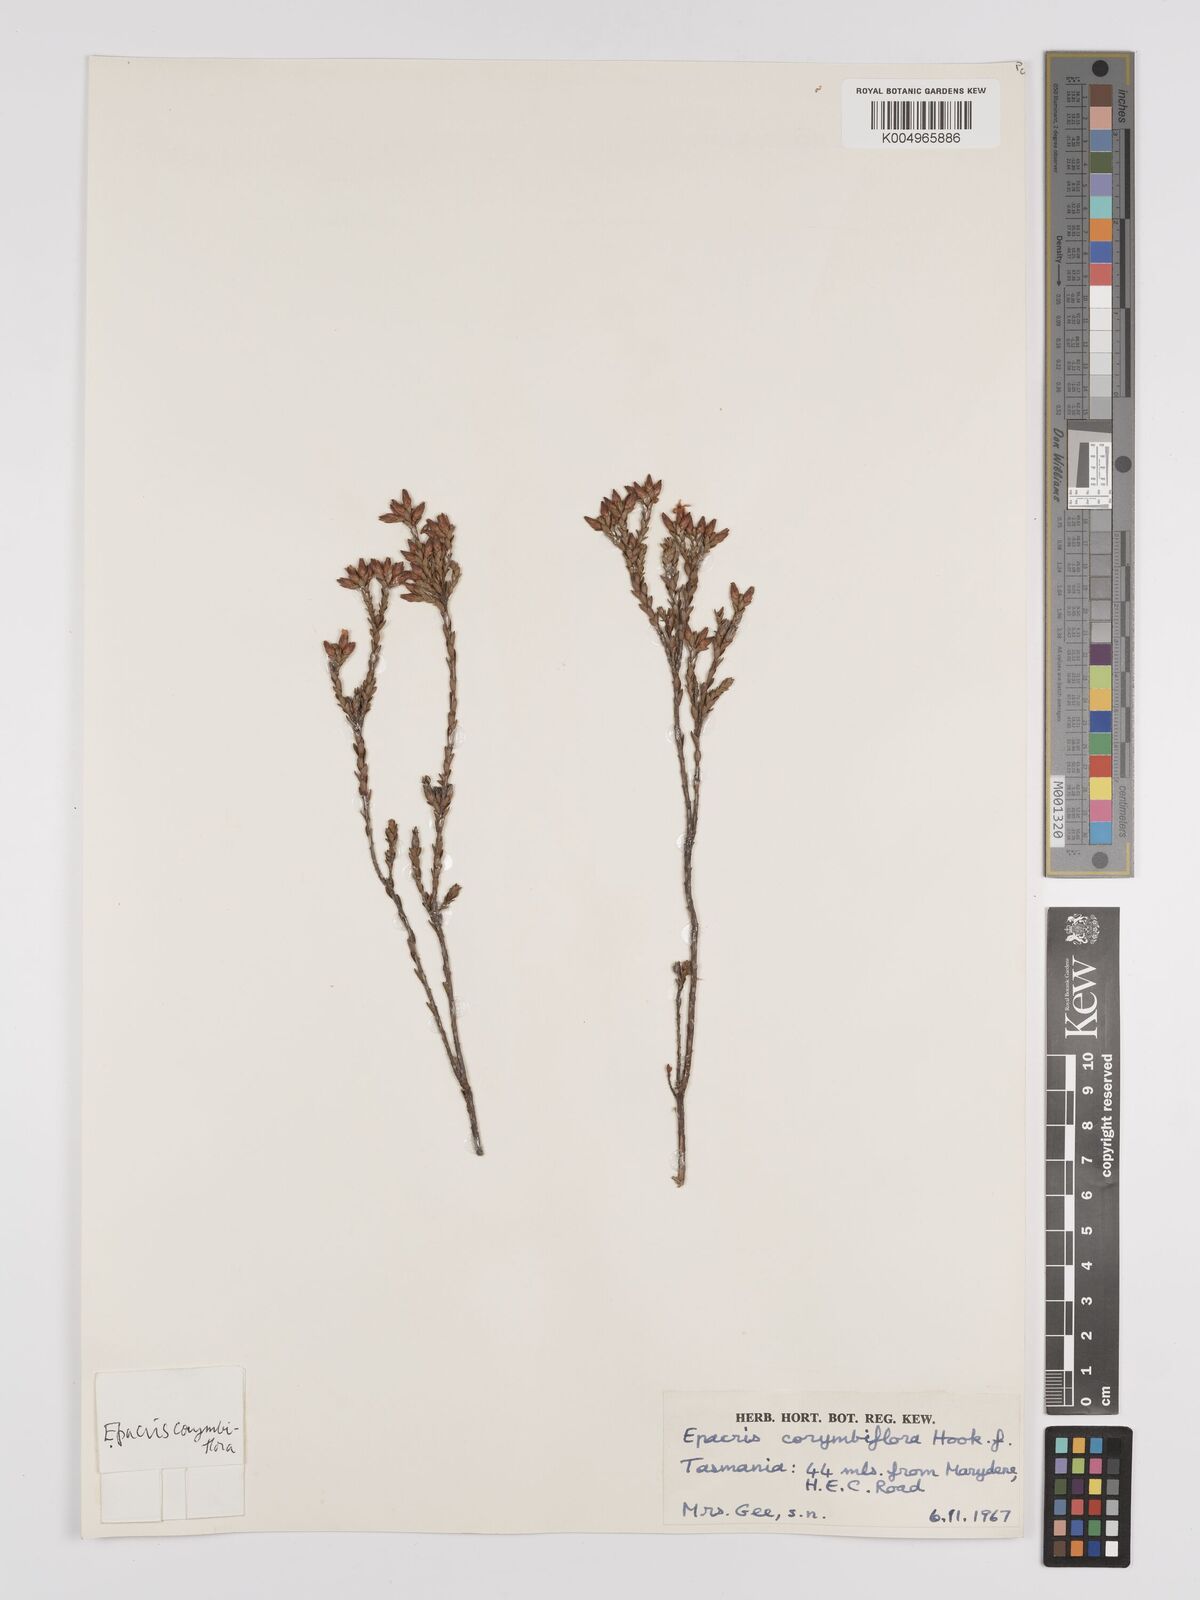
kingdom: Plantae
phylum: Tracheophyta
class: Magnoliopsida
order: Ericales
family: Ericaceae
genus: Epacris
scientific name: Epacris corymbiflora
